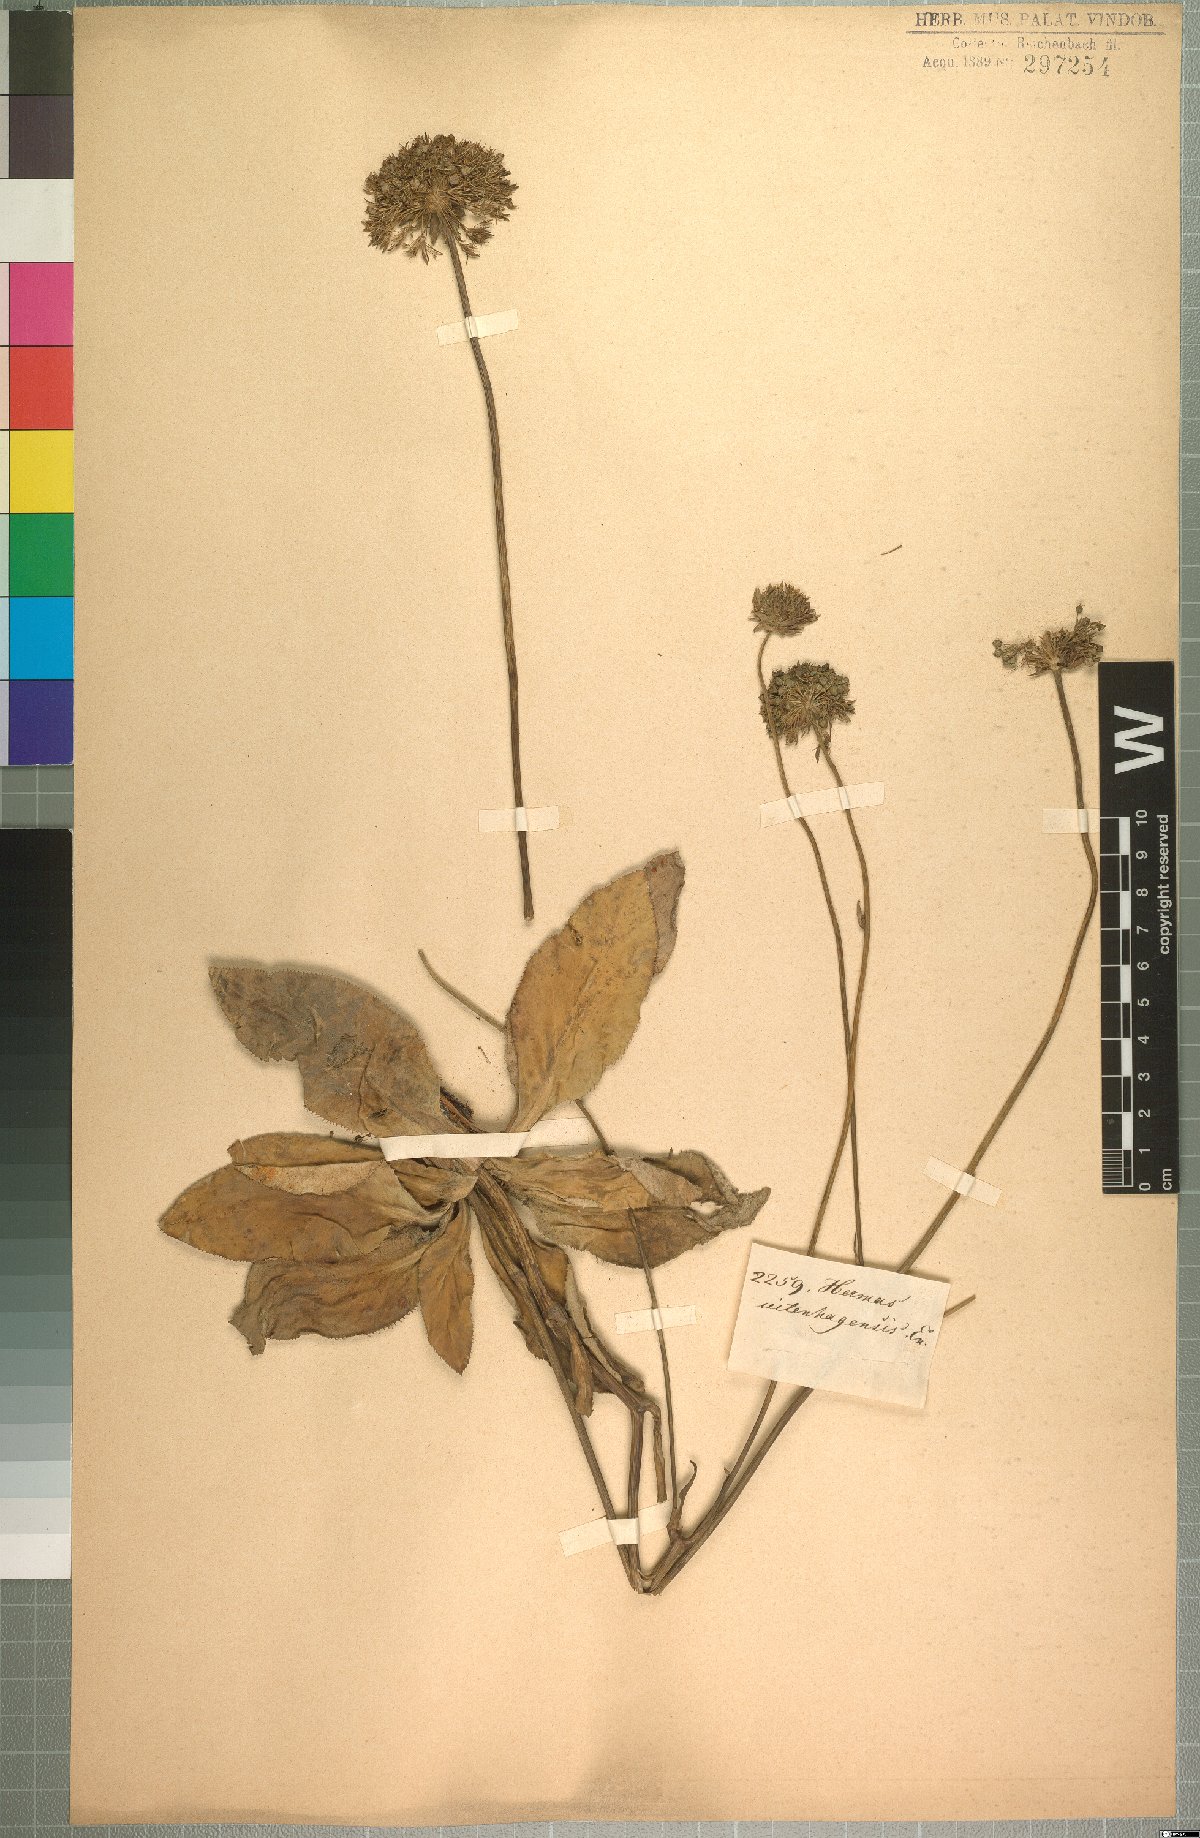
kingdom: Plantae
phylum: Tracheophyta
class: Magnoliopsida
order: Apiales
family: Apiaceae
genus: Hermas
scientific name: Hermas ciliata
